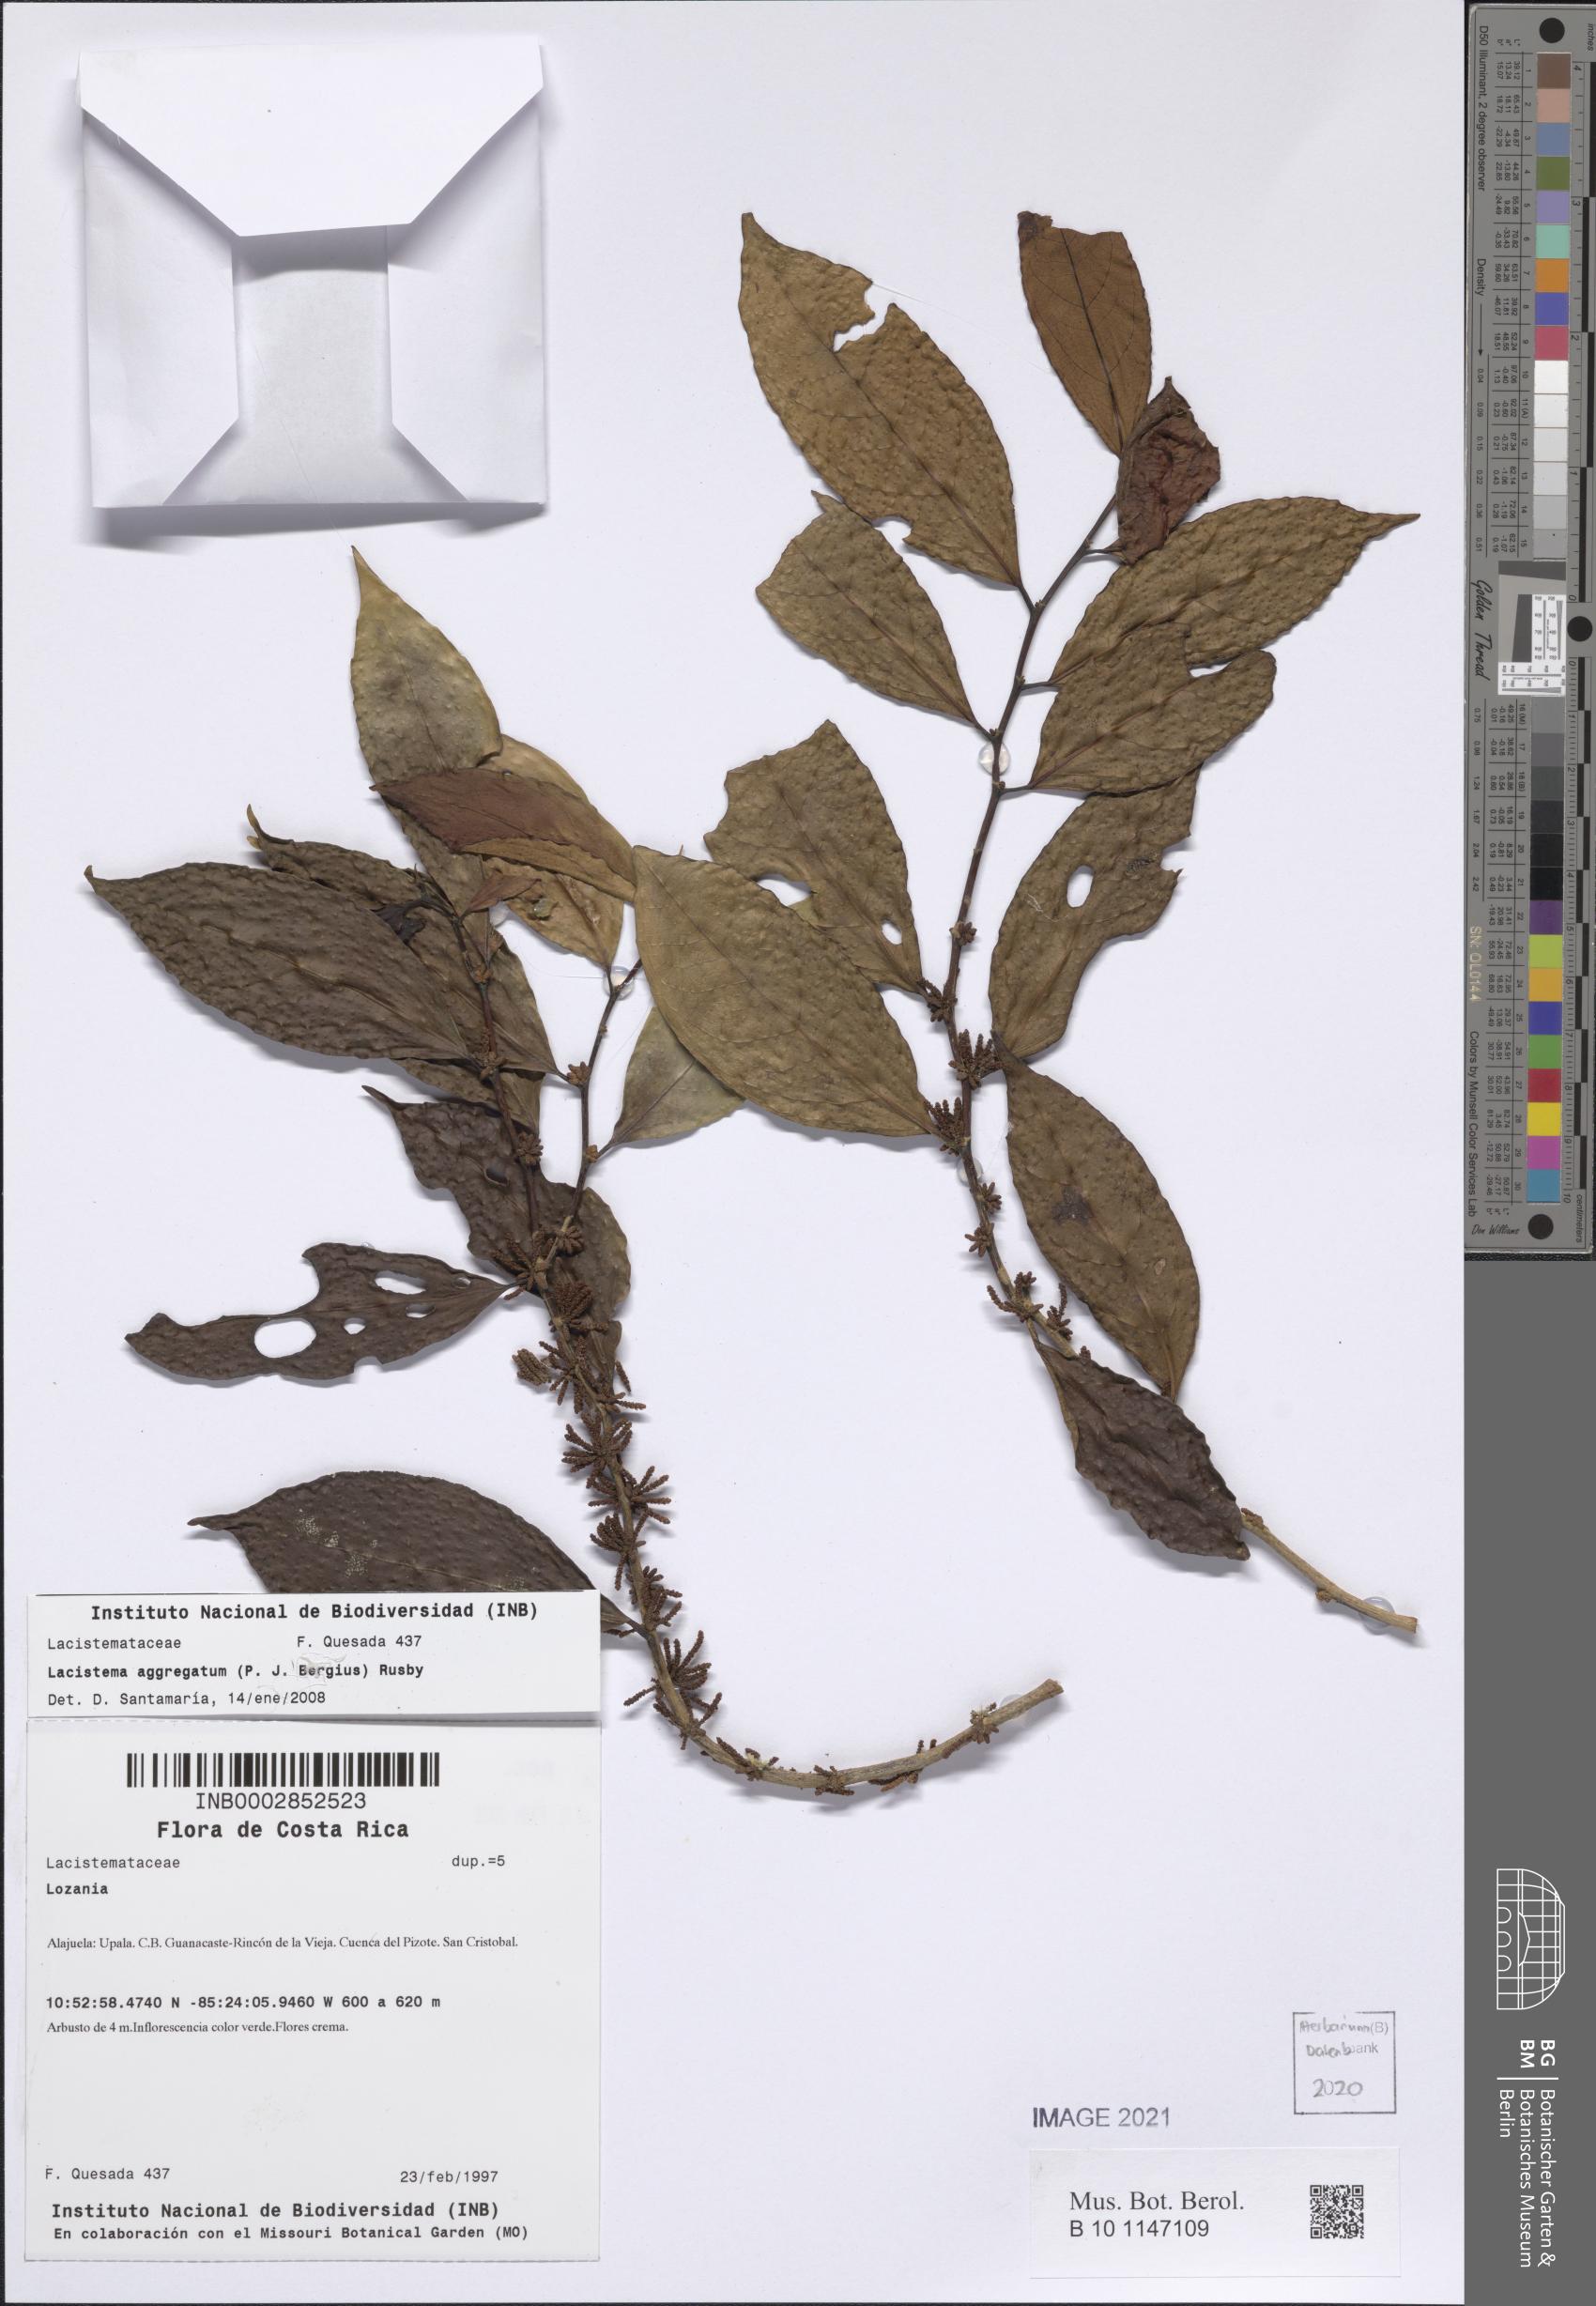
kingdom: Plantae
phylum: Tracheophyta
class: Magnoliopsida
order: Malpighiales
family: Lacistemataceae
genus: Lacistema
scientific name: Lacistema aggregatum
